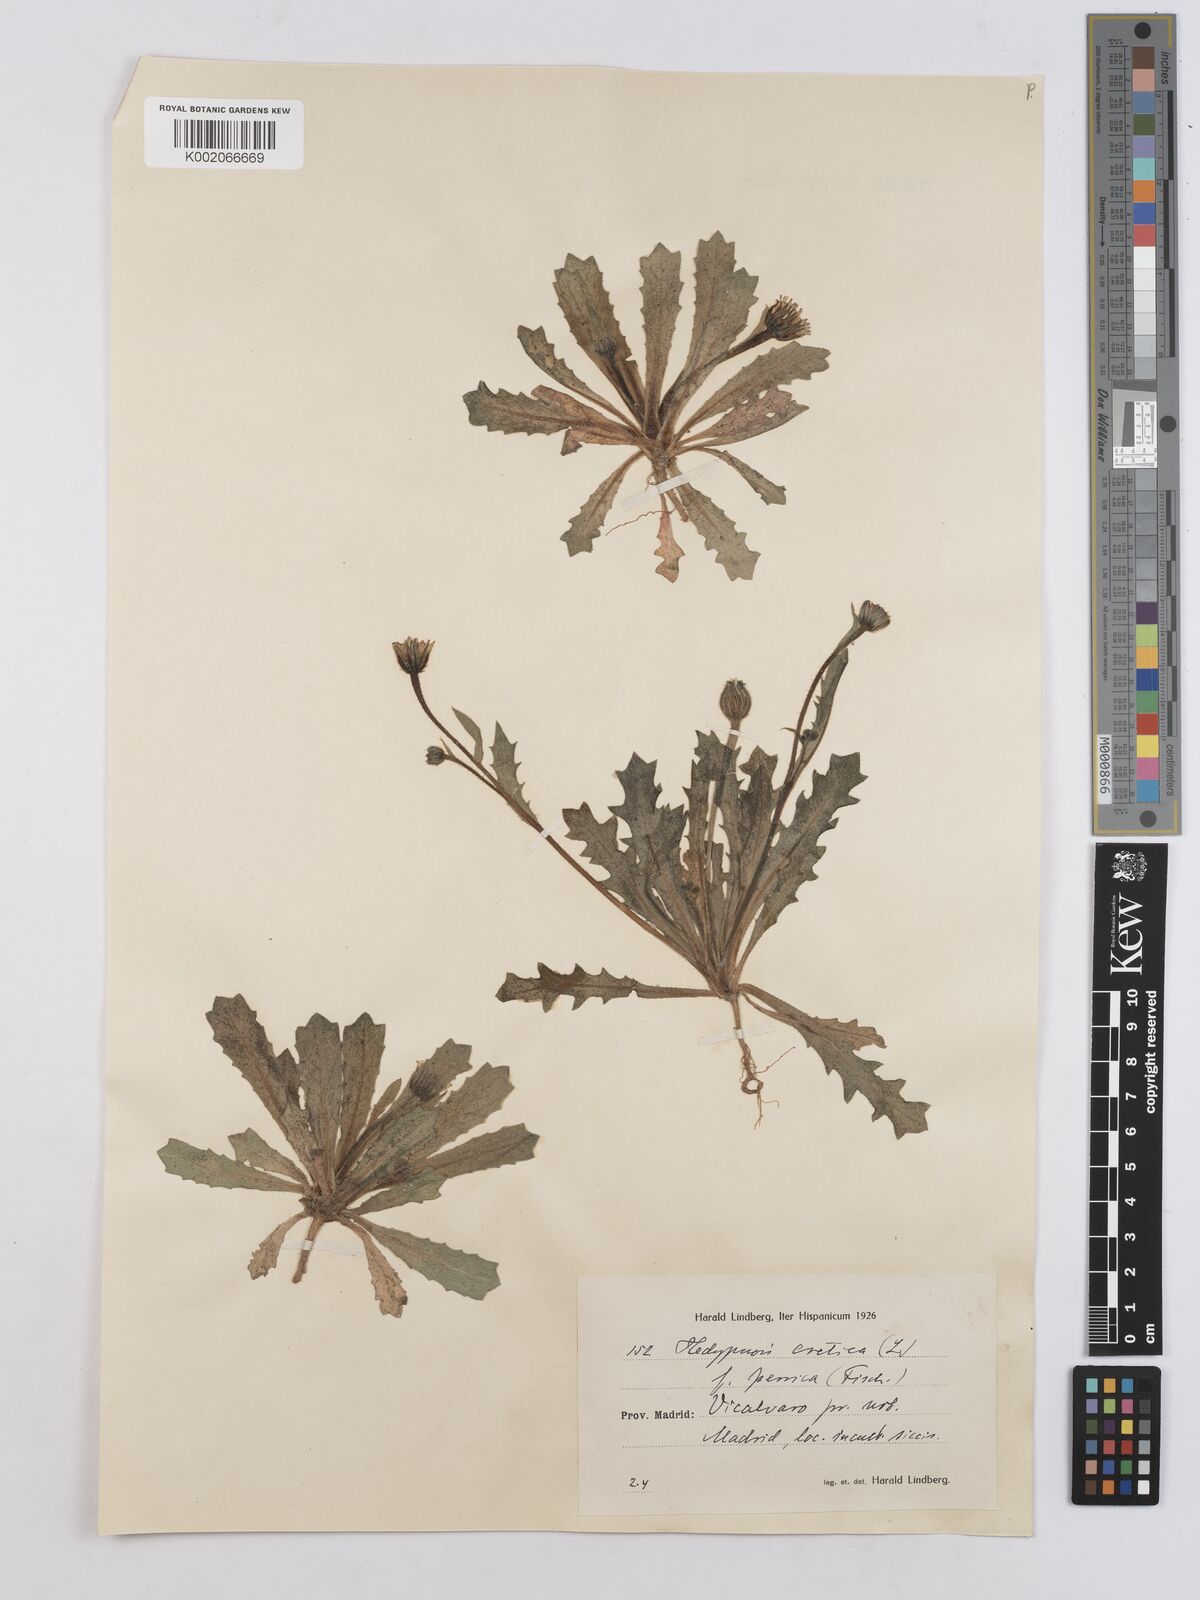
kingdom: Plantae
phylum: Tracheophyta
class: Magnoliopsida
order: Asterales
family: Asteraceae
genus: Hedypnois
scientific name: Hedypnois cretica
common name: Scaly hawkbit
